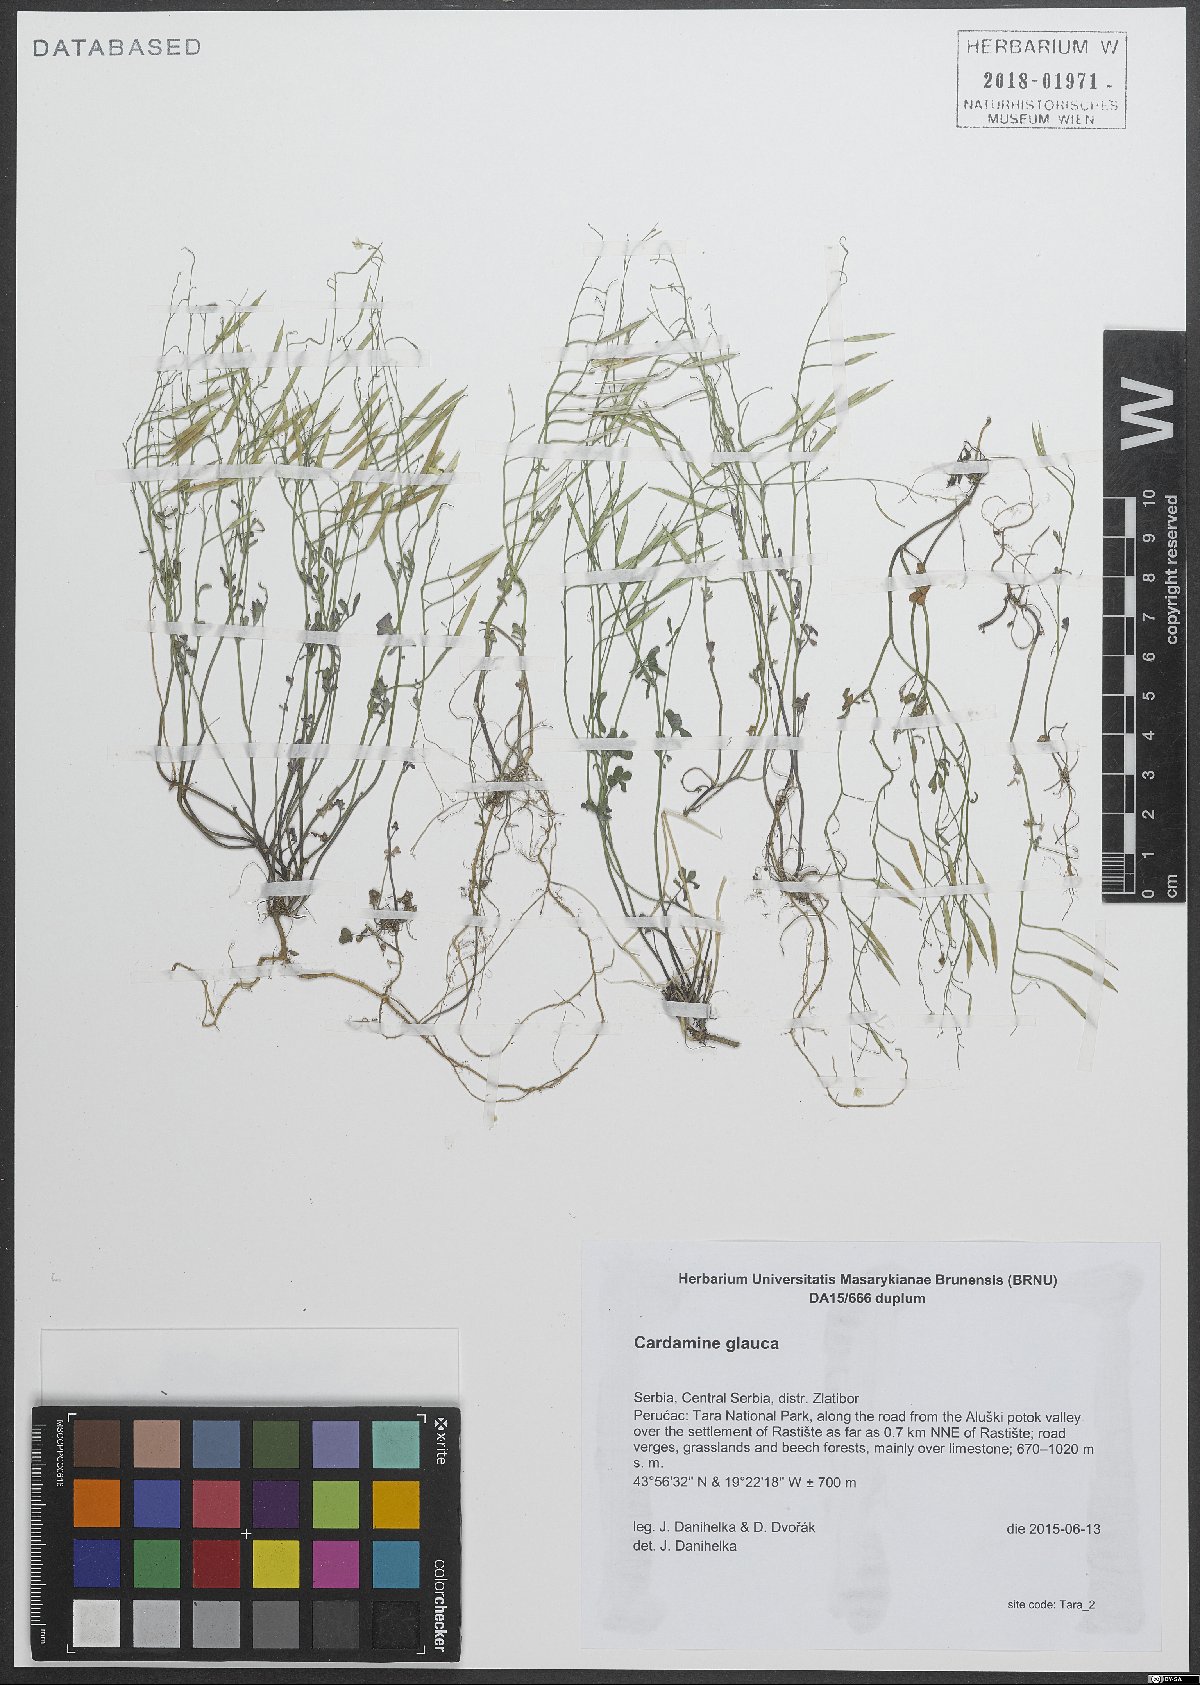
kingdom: Plantae
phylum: Tracheophyta
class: Magnoliopsida
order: Brassicales
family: Brassicaceae
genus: Cardamine
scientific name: Cardamine glauca
